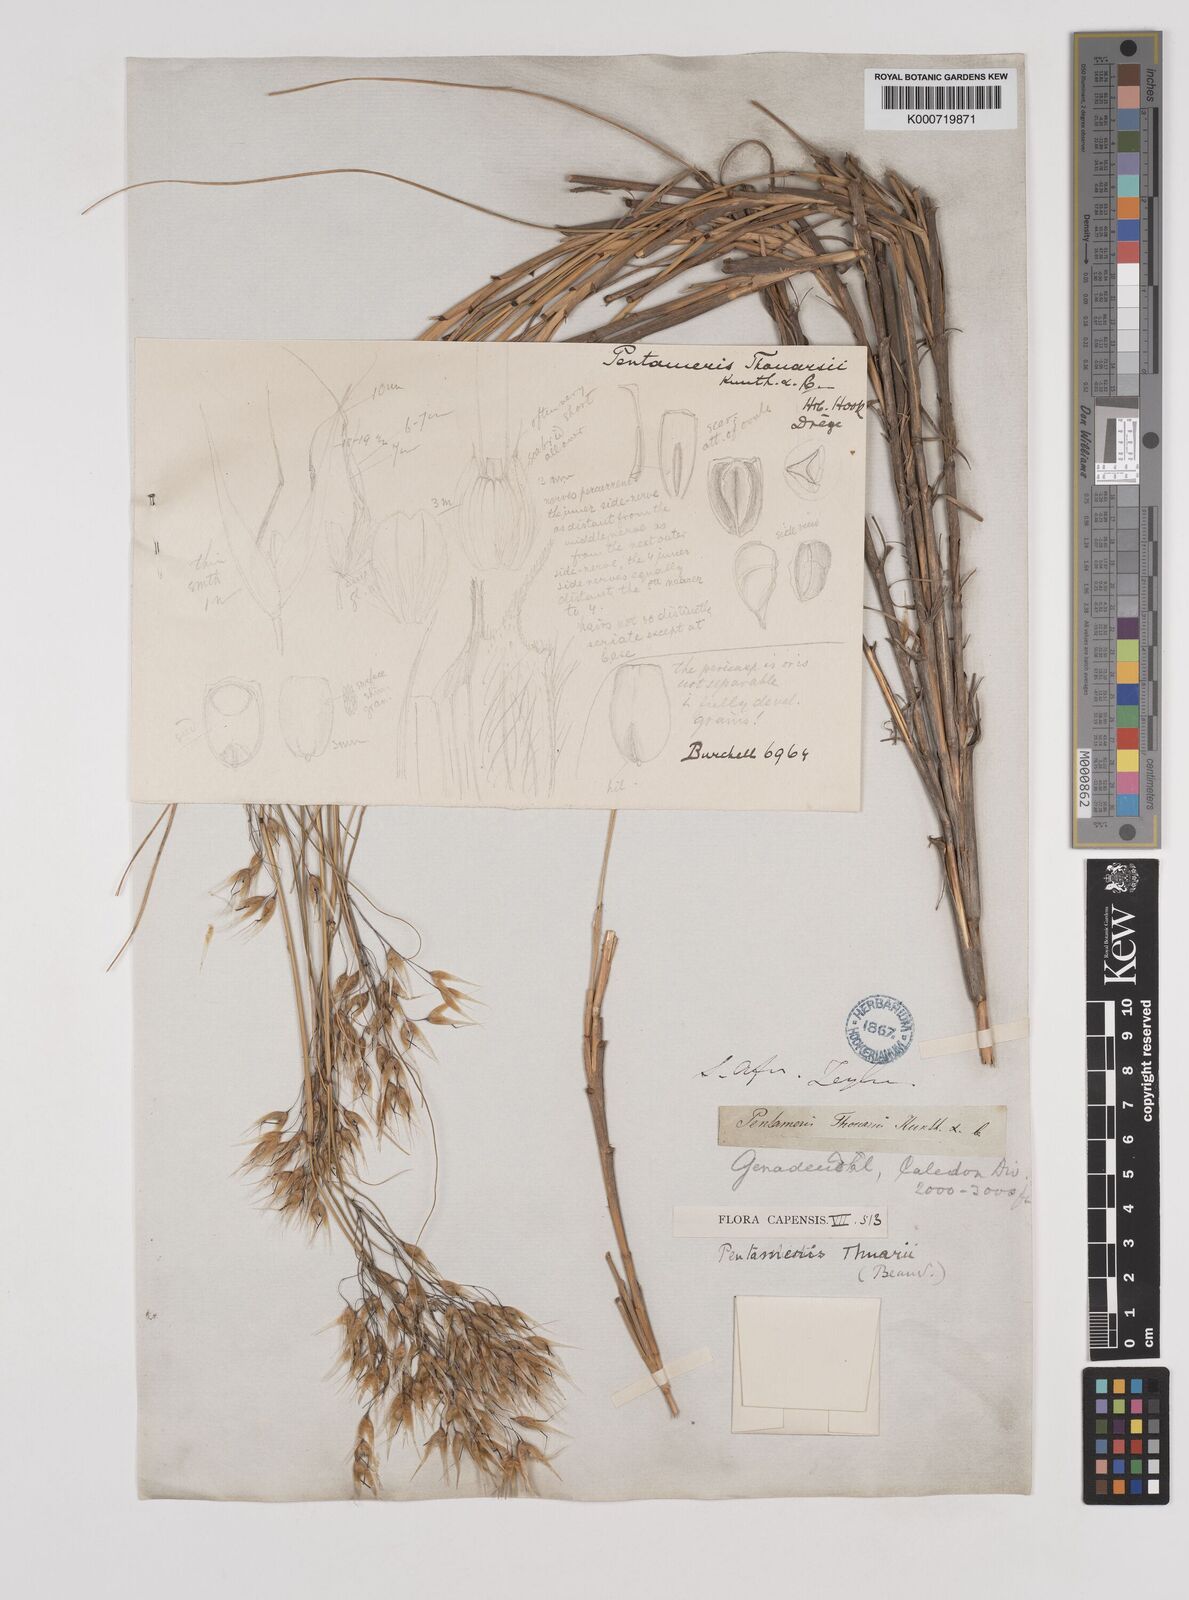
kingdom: Plantae
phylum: Tracheophyta
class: Liliopsida
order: Poales
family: Poaceae
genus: Pentameris
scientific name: Pentameris thuarii
